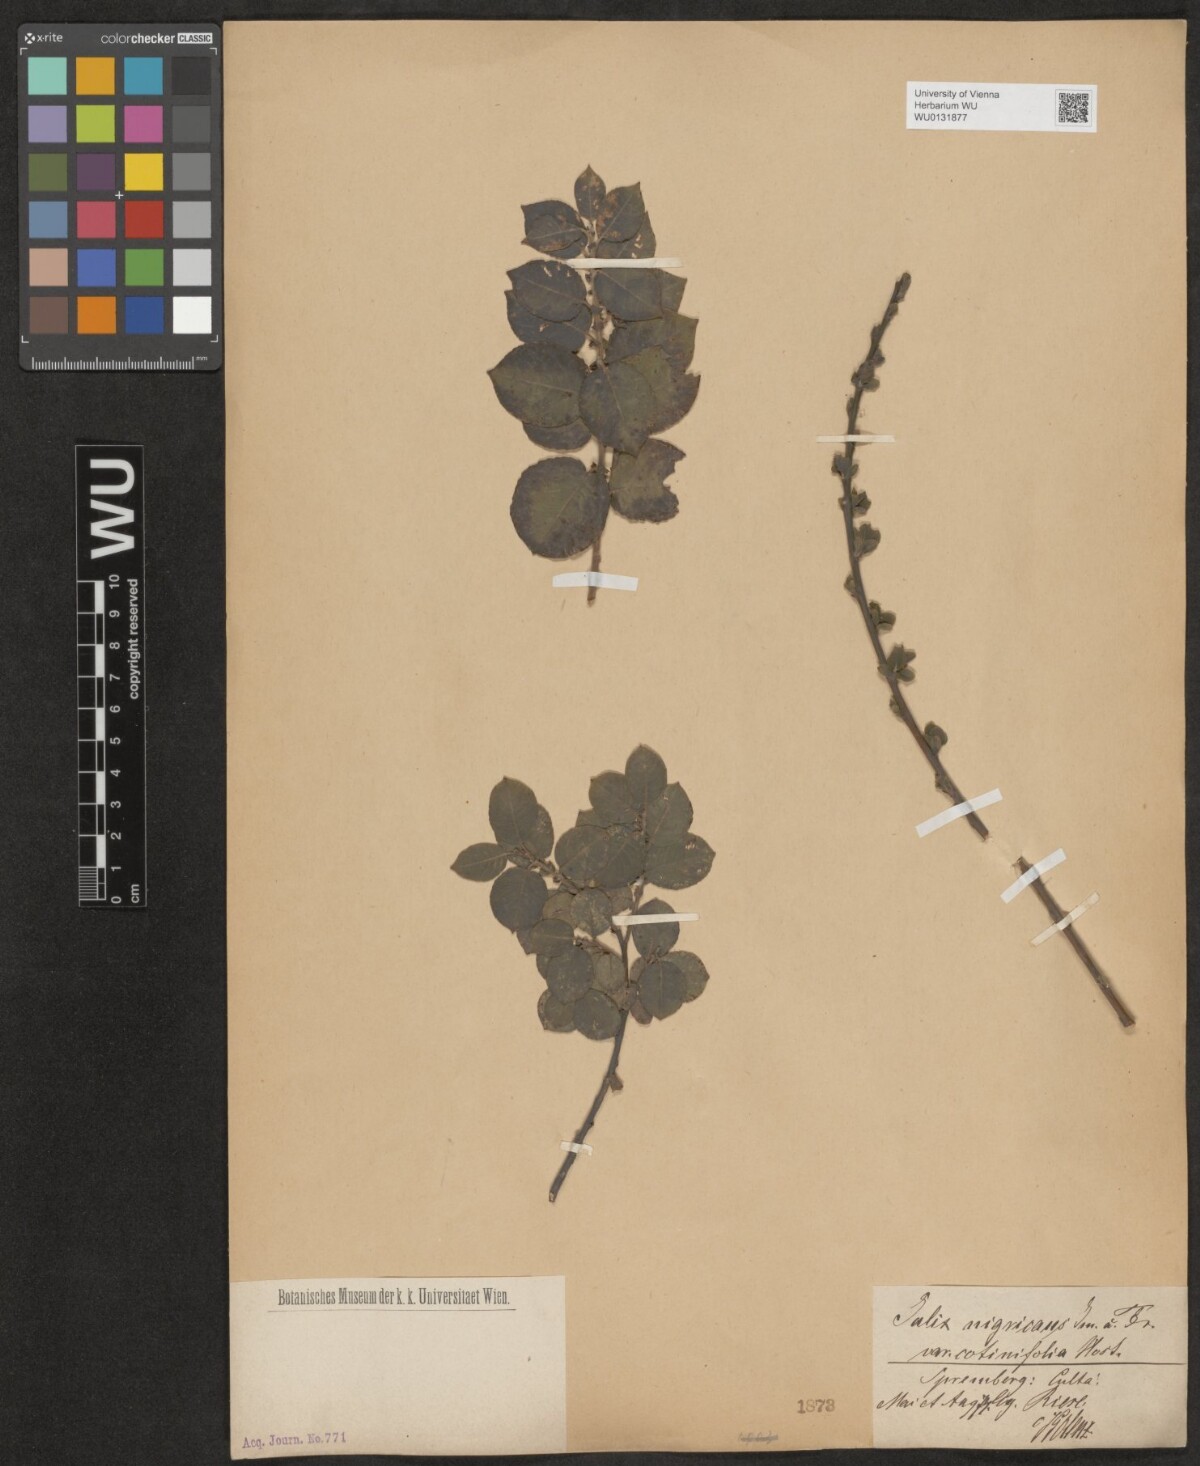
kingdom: Plantae
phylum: Tracheophyta
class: Magnoliopsida
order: Malpighiales
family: Salicaceae
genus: Salix
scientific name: Salix myrsinifolia
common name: Dark-leaved willow
